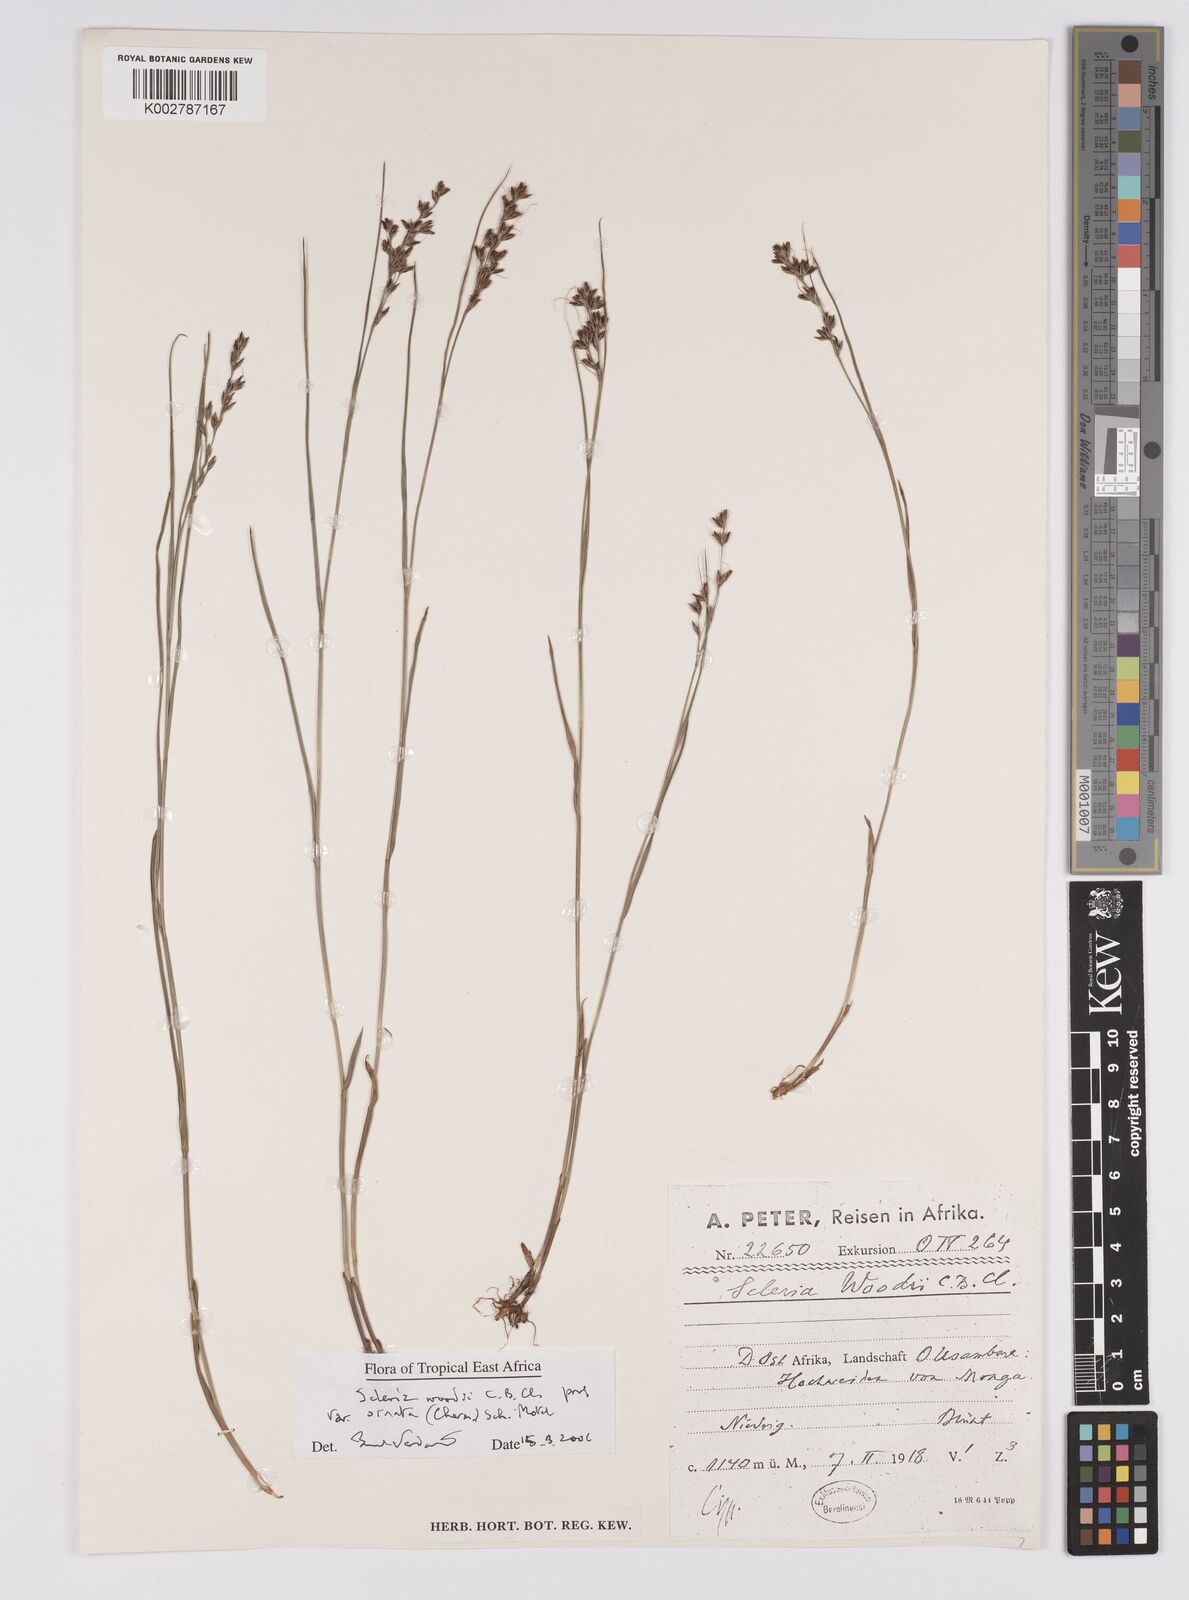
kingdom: Plantae
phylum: Tracheophyta
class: Liliopsida
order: Poales
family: Cyperaceae
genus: Scleria
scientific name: Scleria woodii
